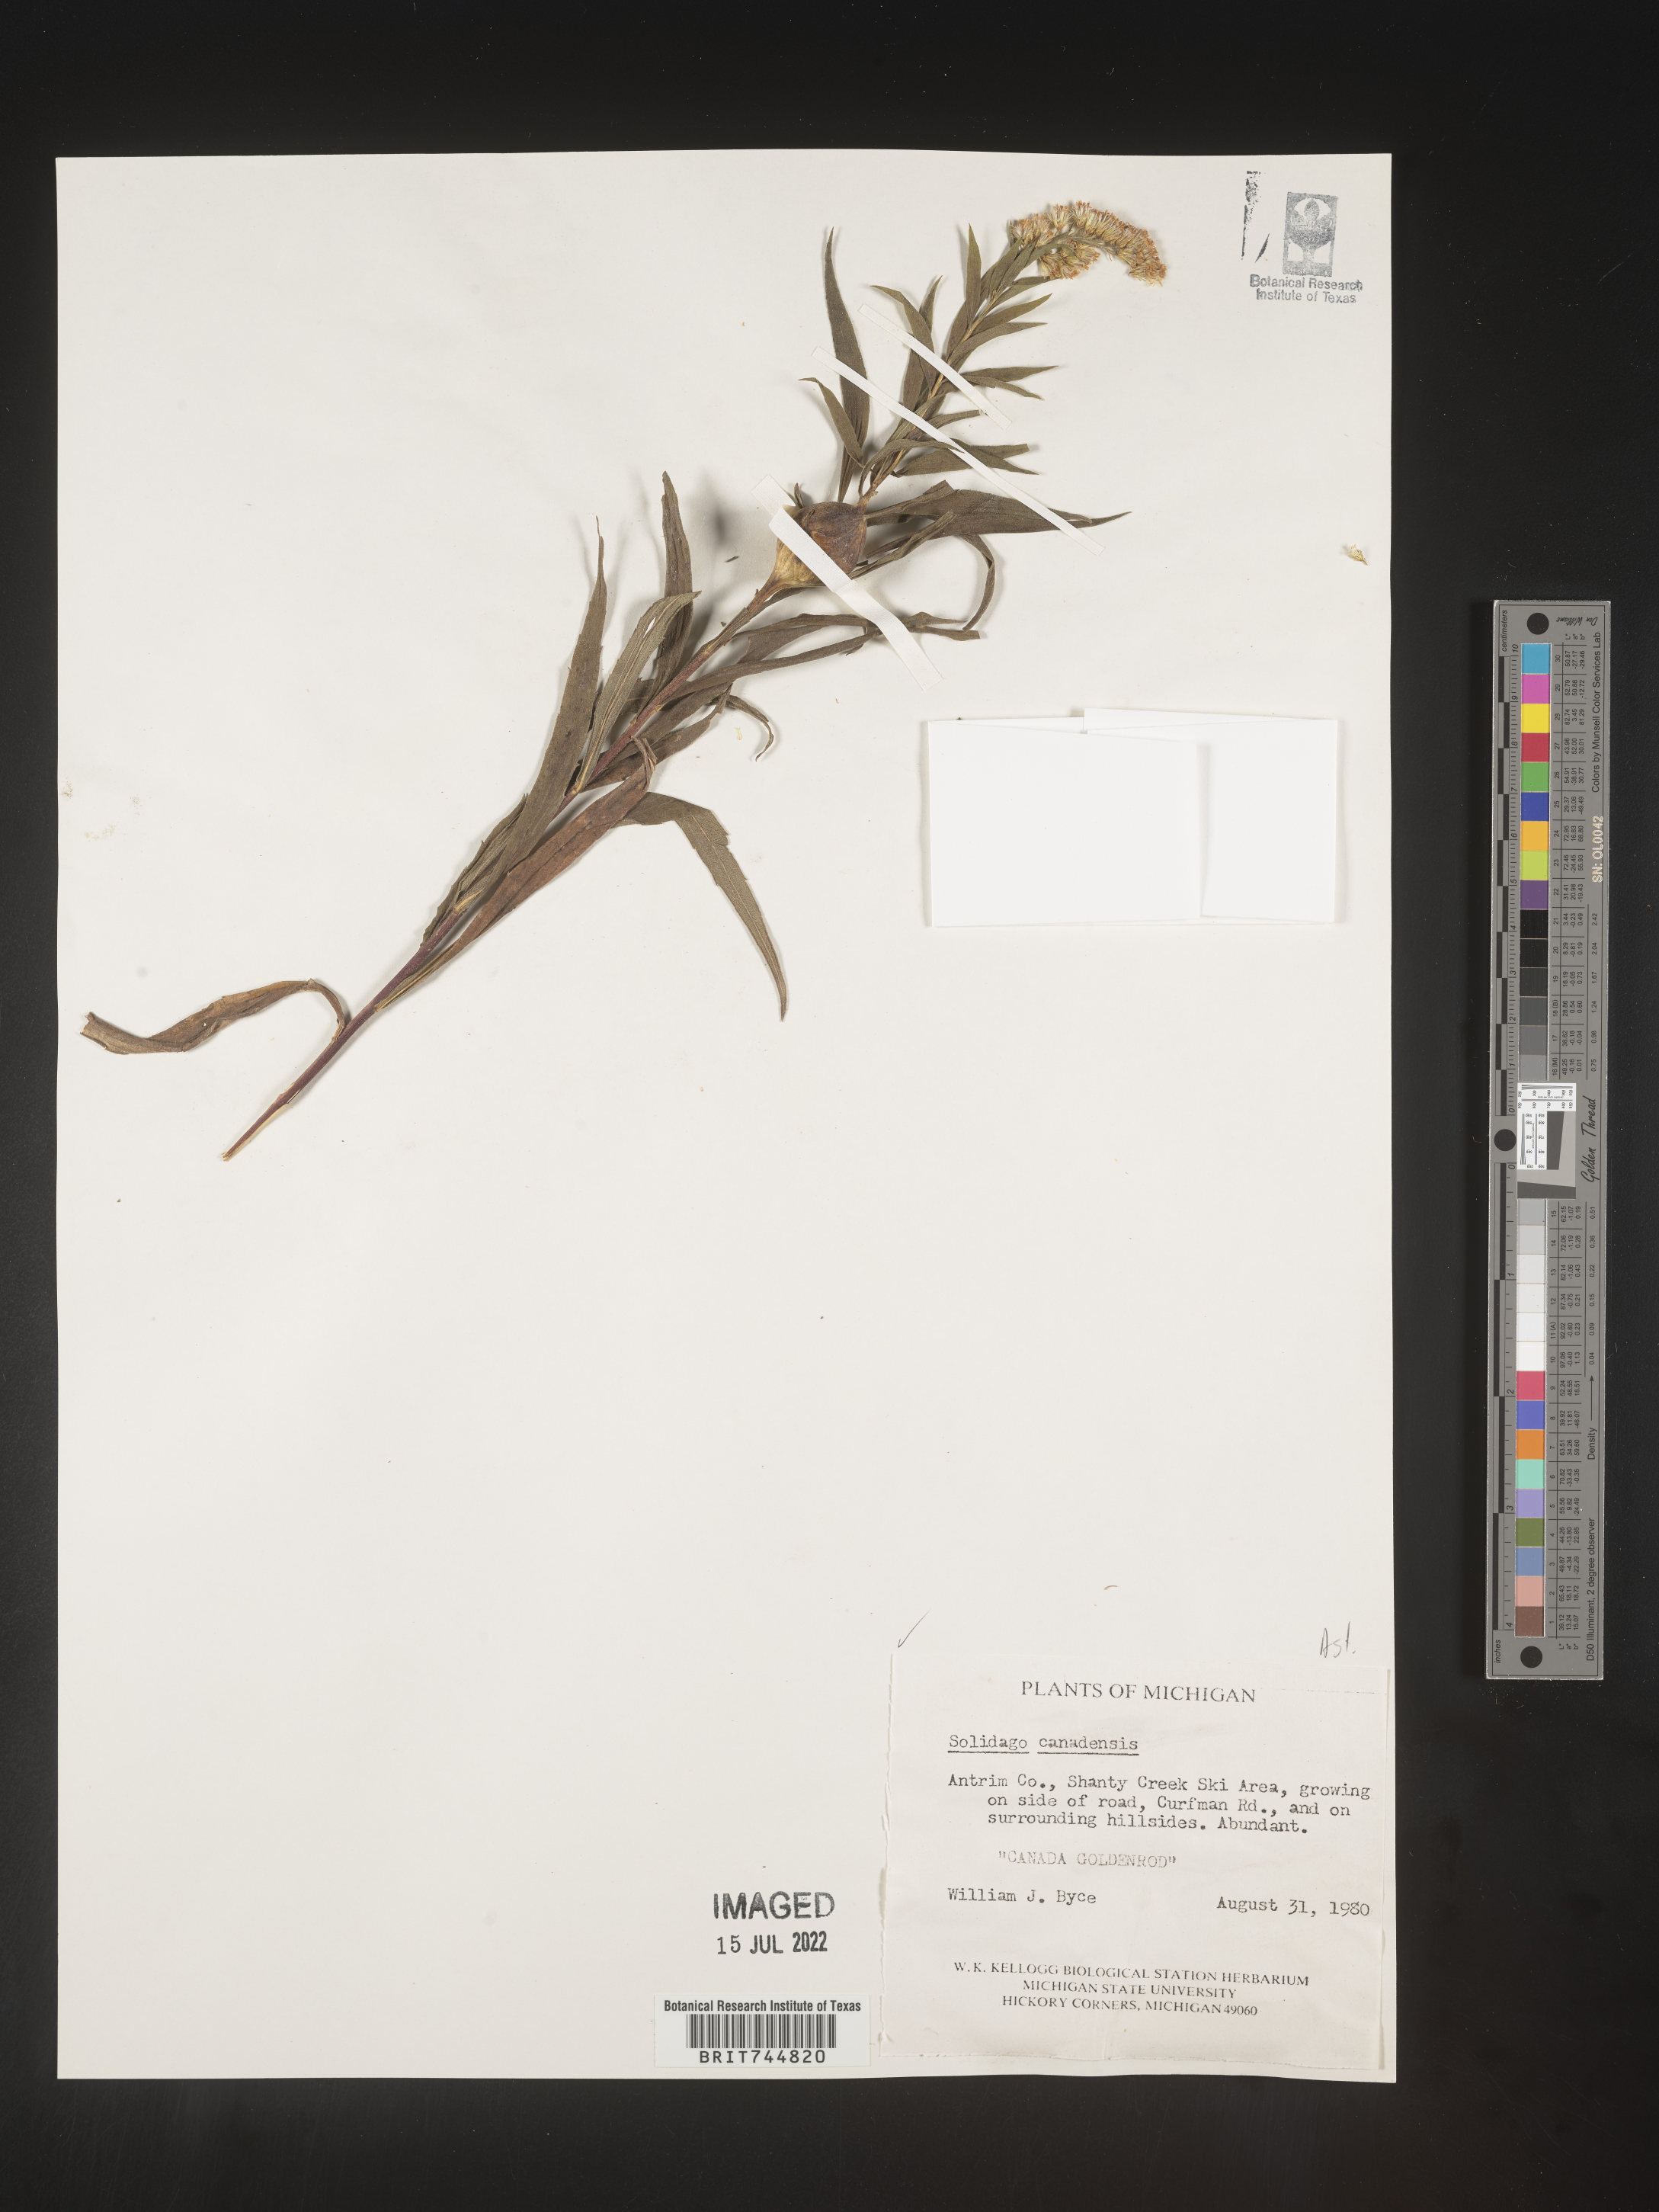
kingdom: Plantae
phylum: Tracheophyta
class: Magnoliopsida
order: Asterales
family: Asteraceae
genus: Solidago
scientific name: Solidago canadensis
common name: Canada goldenrod
